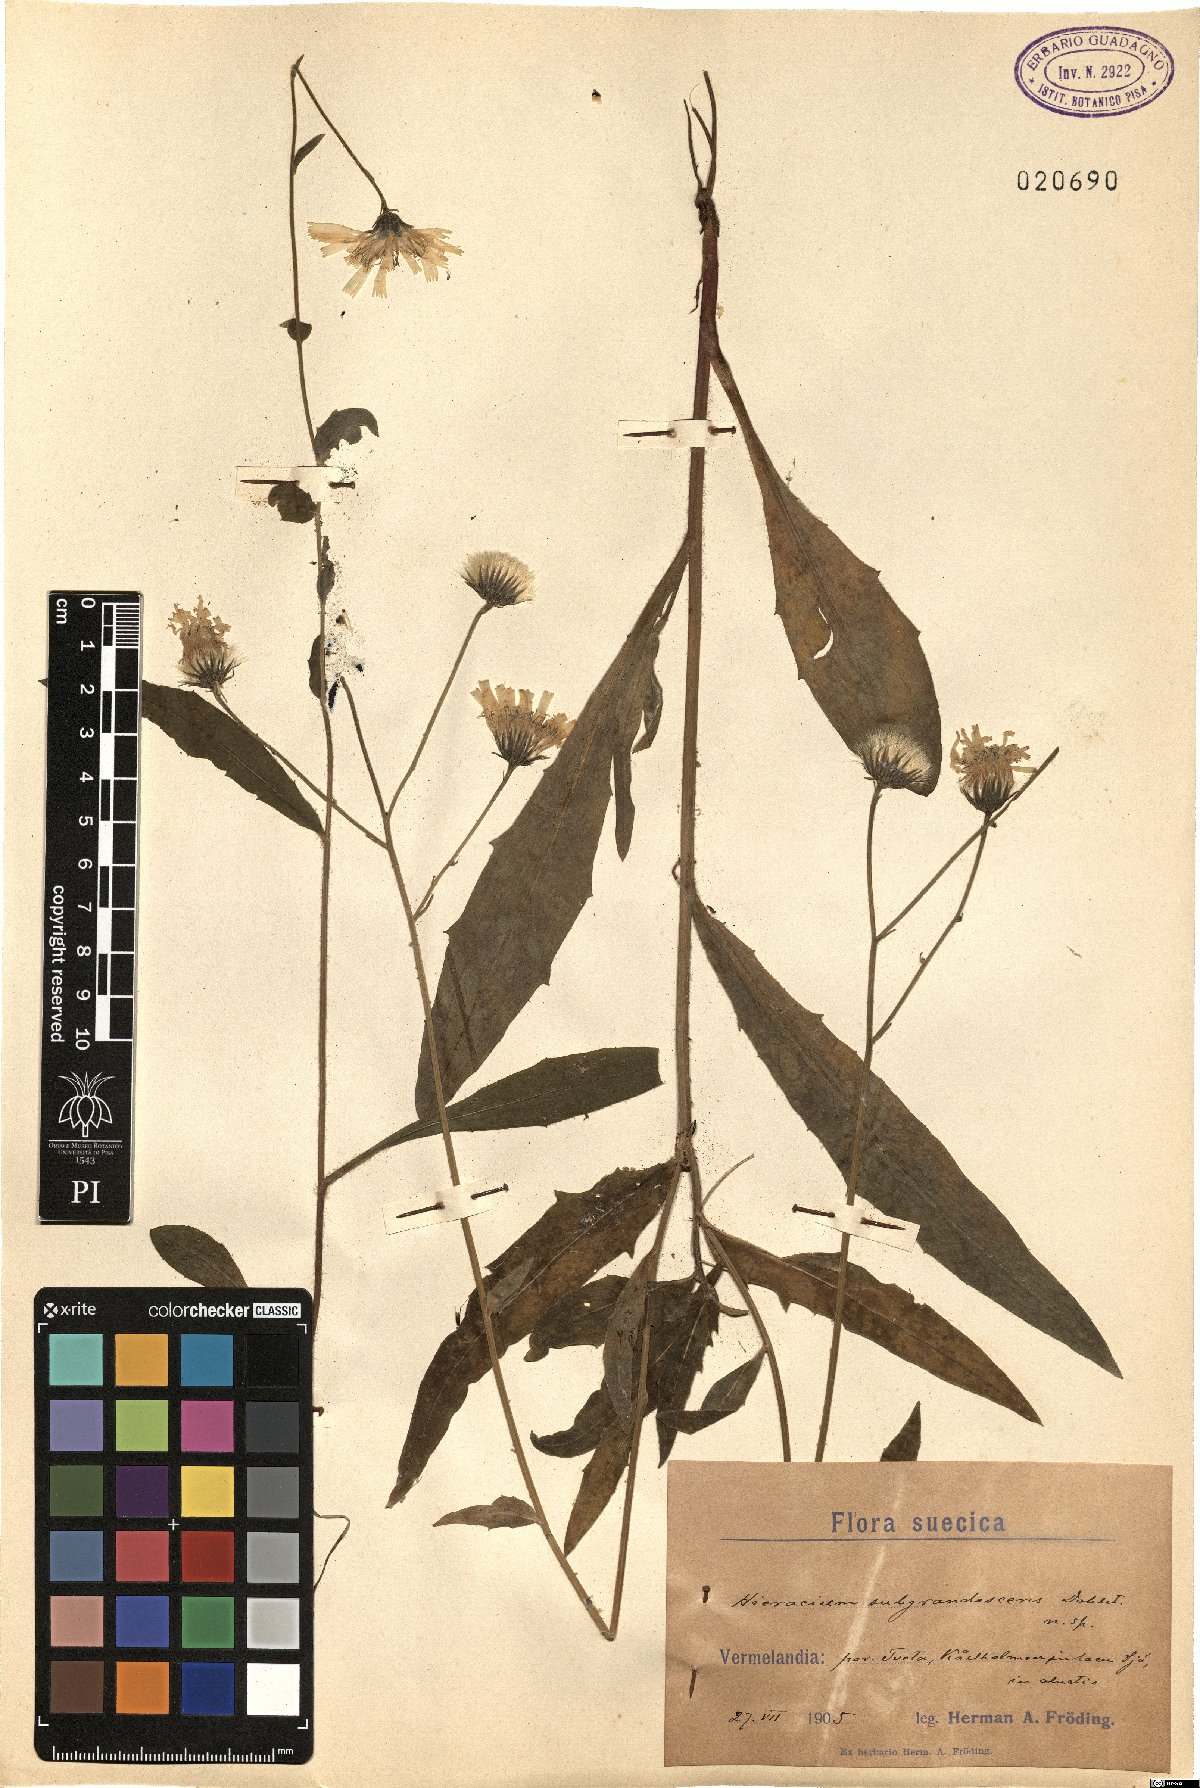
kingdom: Plantae
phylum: Tracheophyta
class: Magnoliopsida
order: Asterales
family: Asteraceae
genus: Hieracium
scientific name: Hieracium
